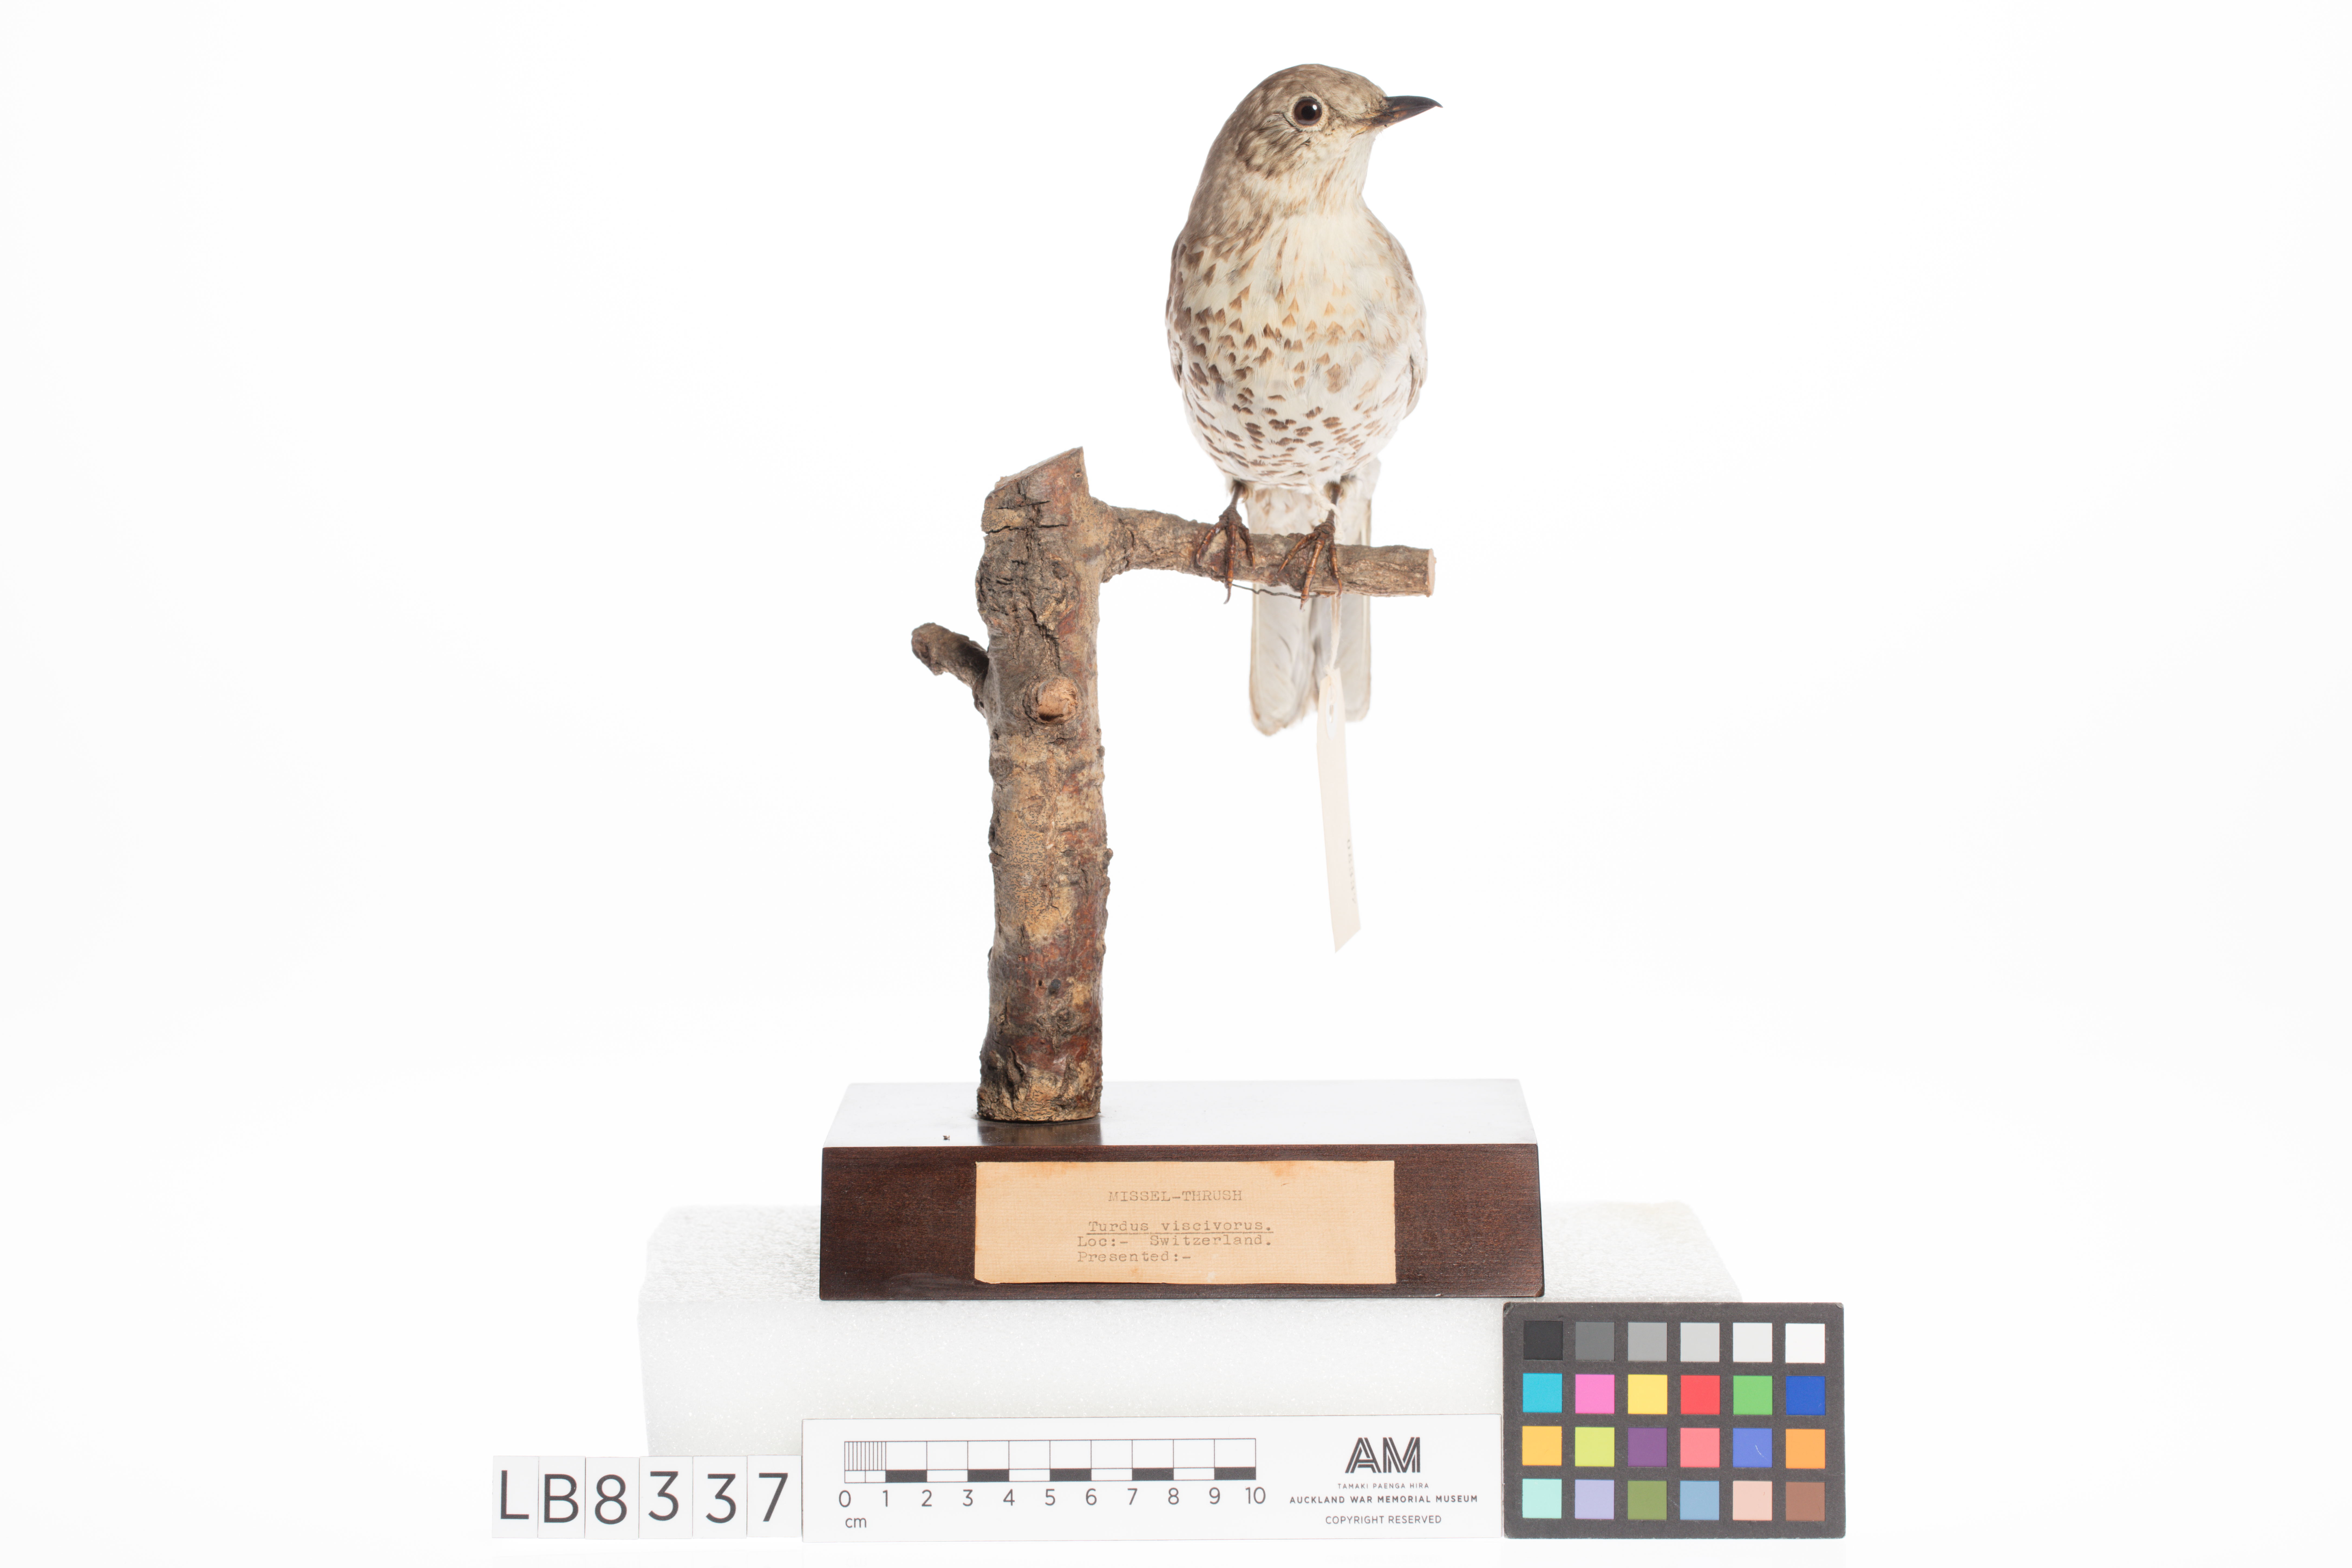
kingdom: Animalia
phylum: Chordata
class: Aves
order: Passeriformes
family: Turdidae
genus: Turdus
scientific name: Turdus viscivorus
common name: Mistle thrush
